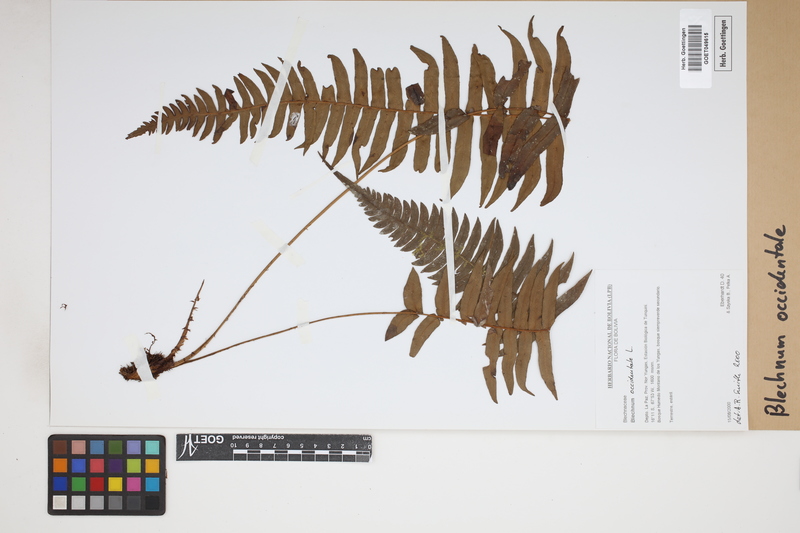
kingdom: Plantae
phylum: Tracheophyta
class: Polypodiopsida
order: Polypodiales
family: Blechnaceae
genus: Blechnum
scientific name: Blechnum occidentale
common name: Hammock fern
